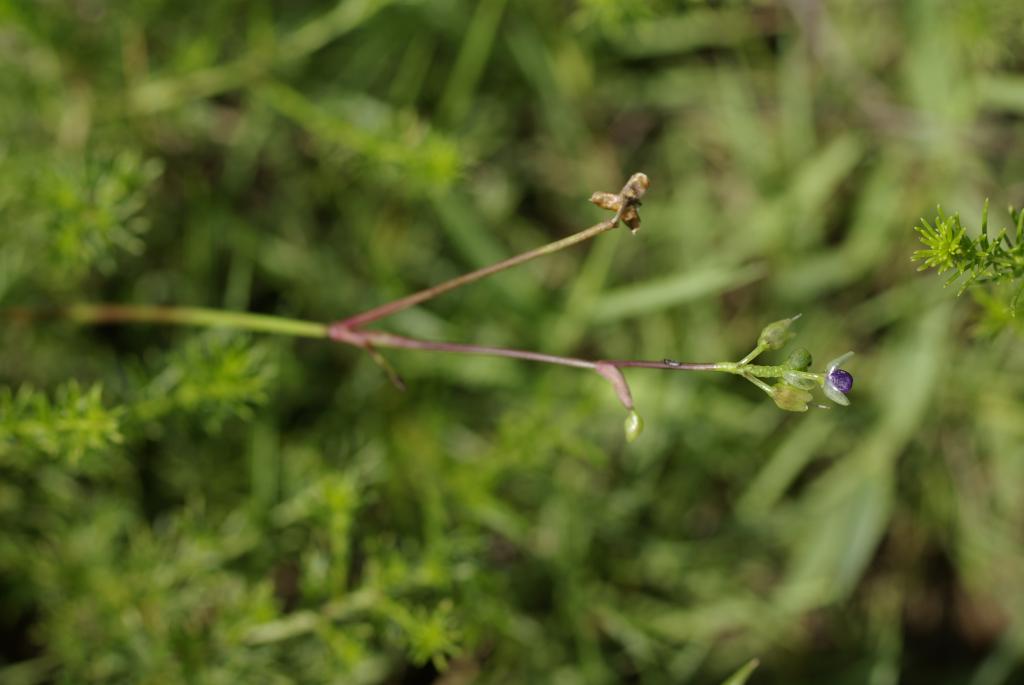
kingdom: Plantae
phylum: Tracheophyta
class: Liliopsida
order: Commelinales
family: Commelinaceae
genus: Murdannia
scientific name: Murdannia loriformis
